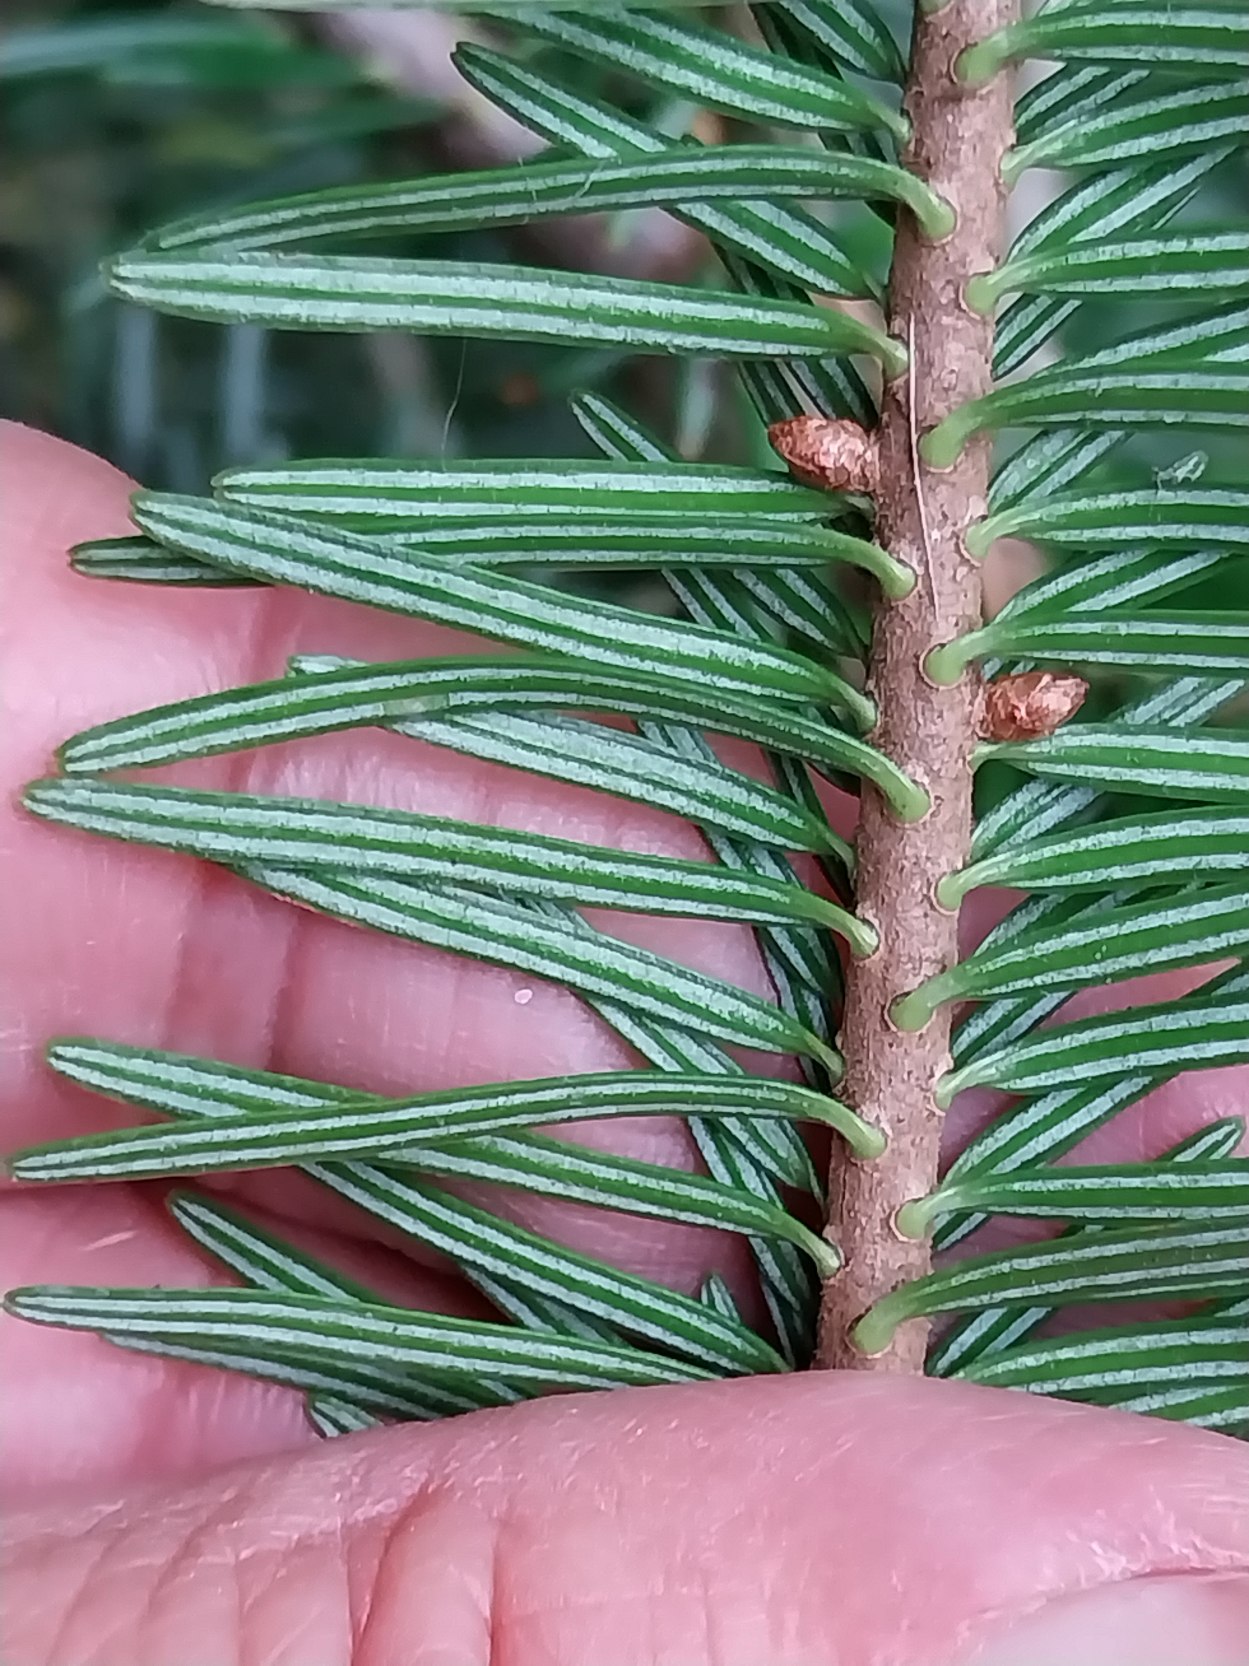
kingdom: Plantae
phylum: Tracheophyta
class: Pinopsida
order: Pinales
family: Pinaceae
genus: Abies
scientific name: Abies alba
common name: Almindelig ædelgran
